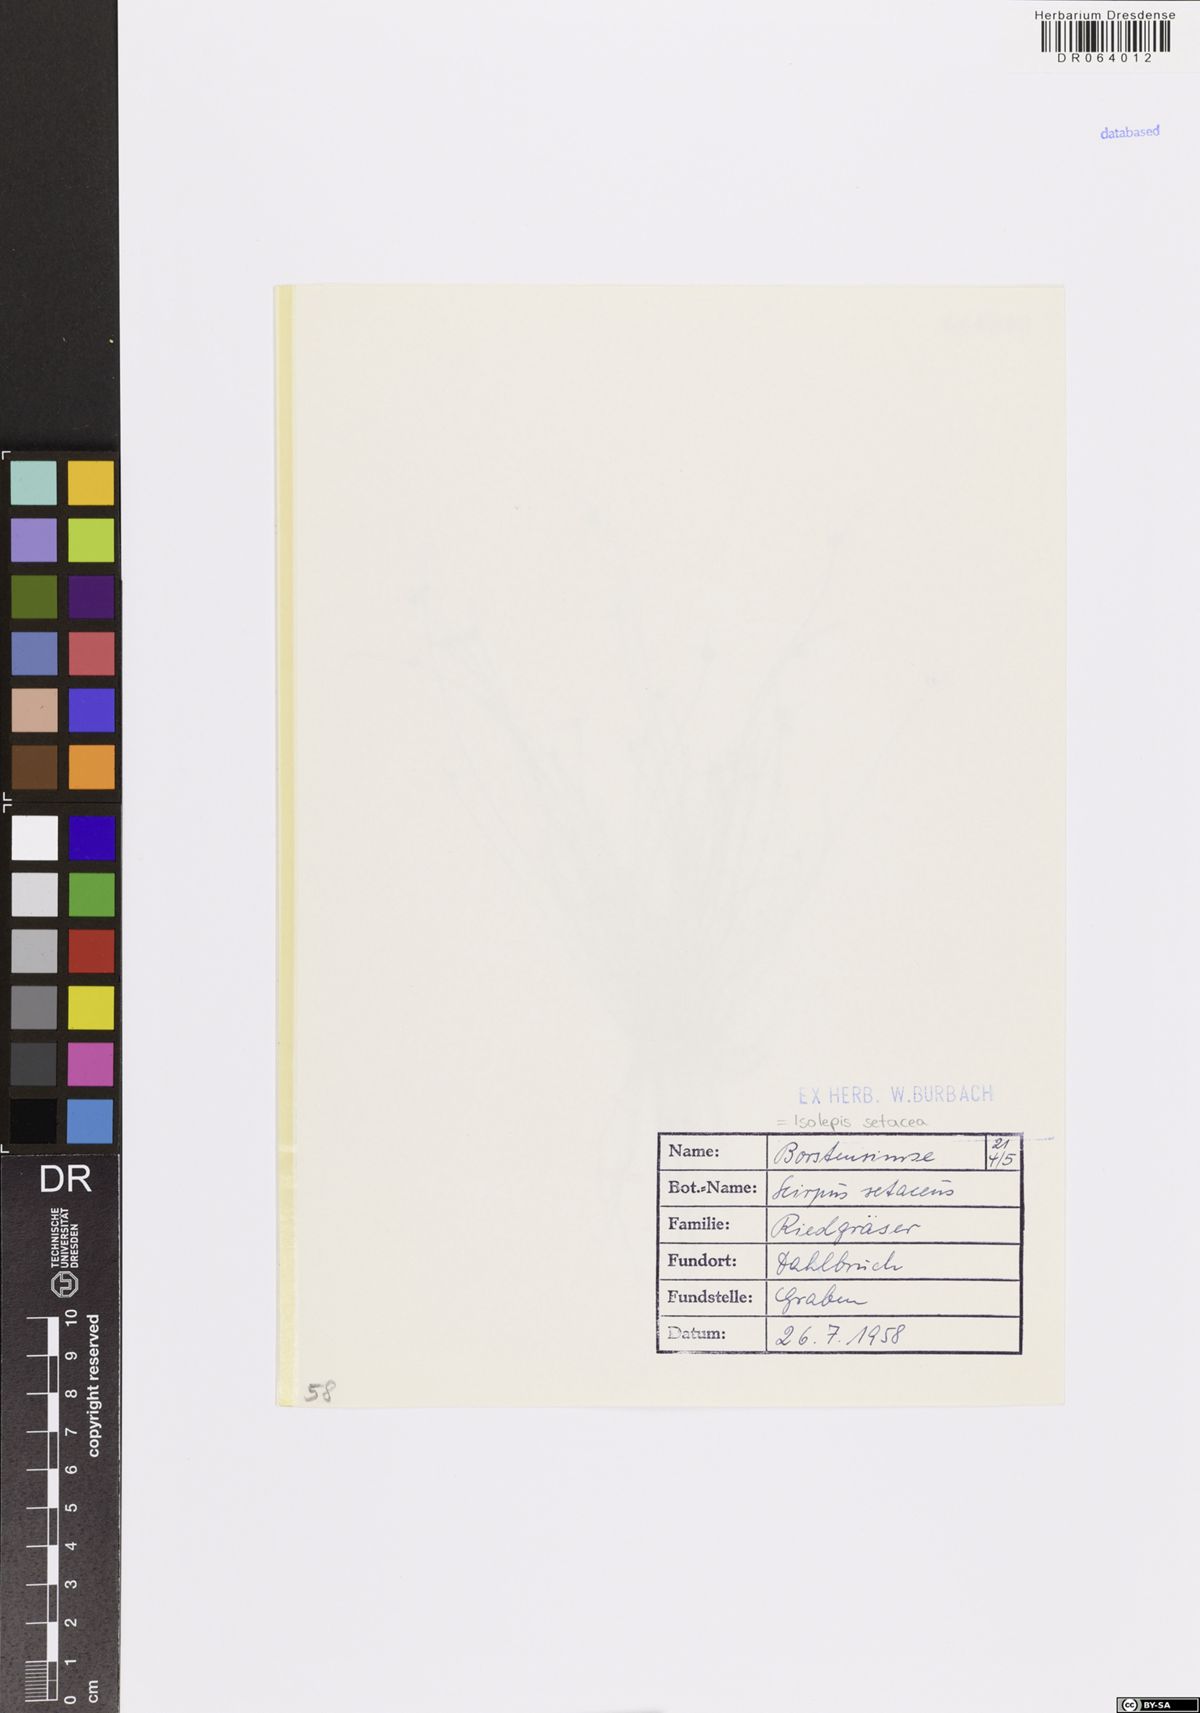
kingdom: Plantae
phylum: Tracheophyta
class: Liliopsida
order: Poales
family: Cyperaceae
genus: Isolepis
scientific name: Isolepis setacea
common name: Bristle club-rush
